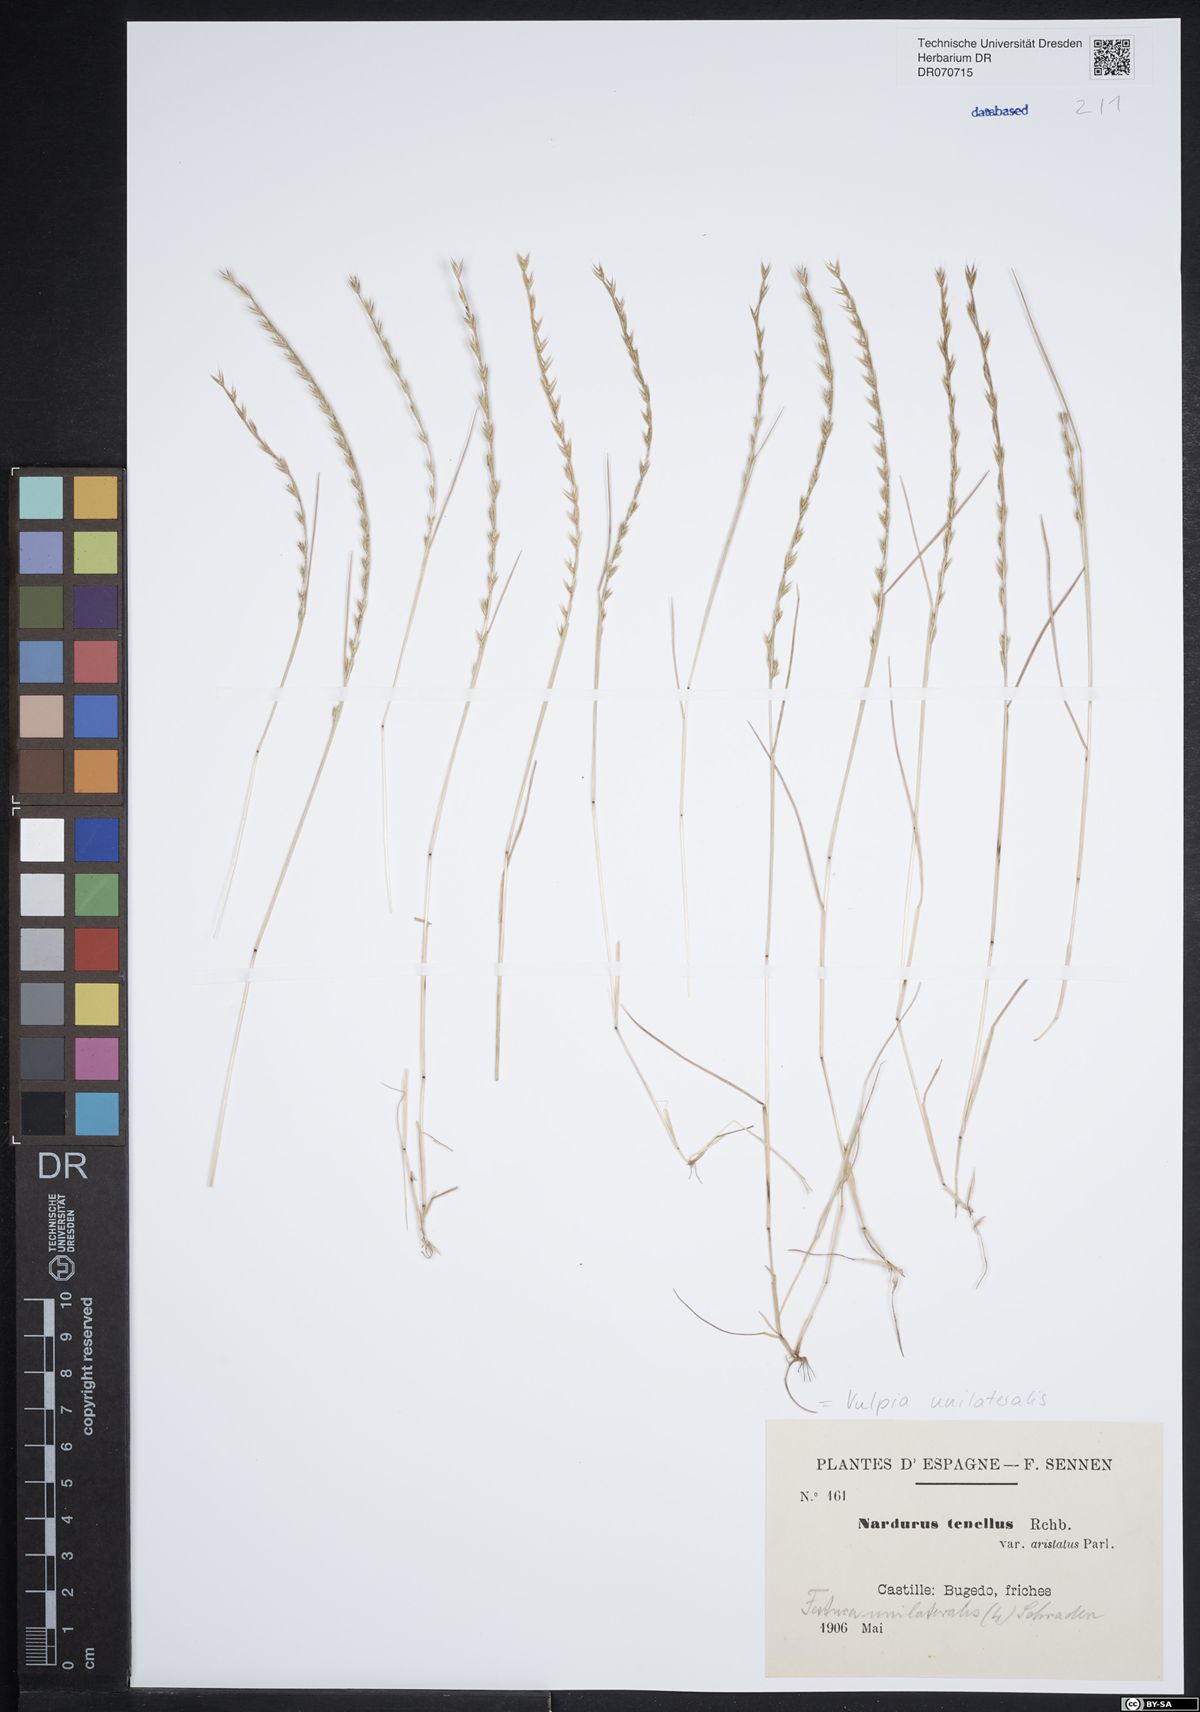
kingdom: Plantae
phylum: Tracheophyta
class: Liliopsida
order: Poales
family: Poaceae
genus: Festuca
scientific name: Festuca maritima
